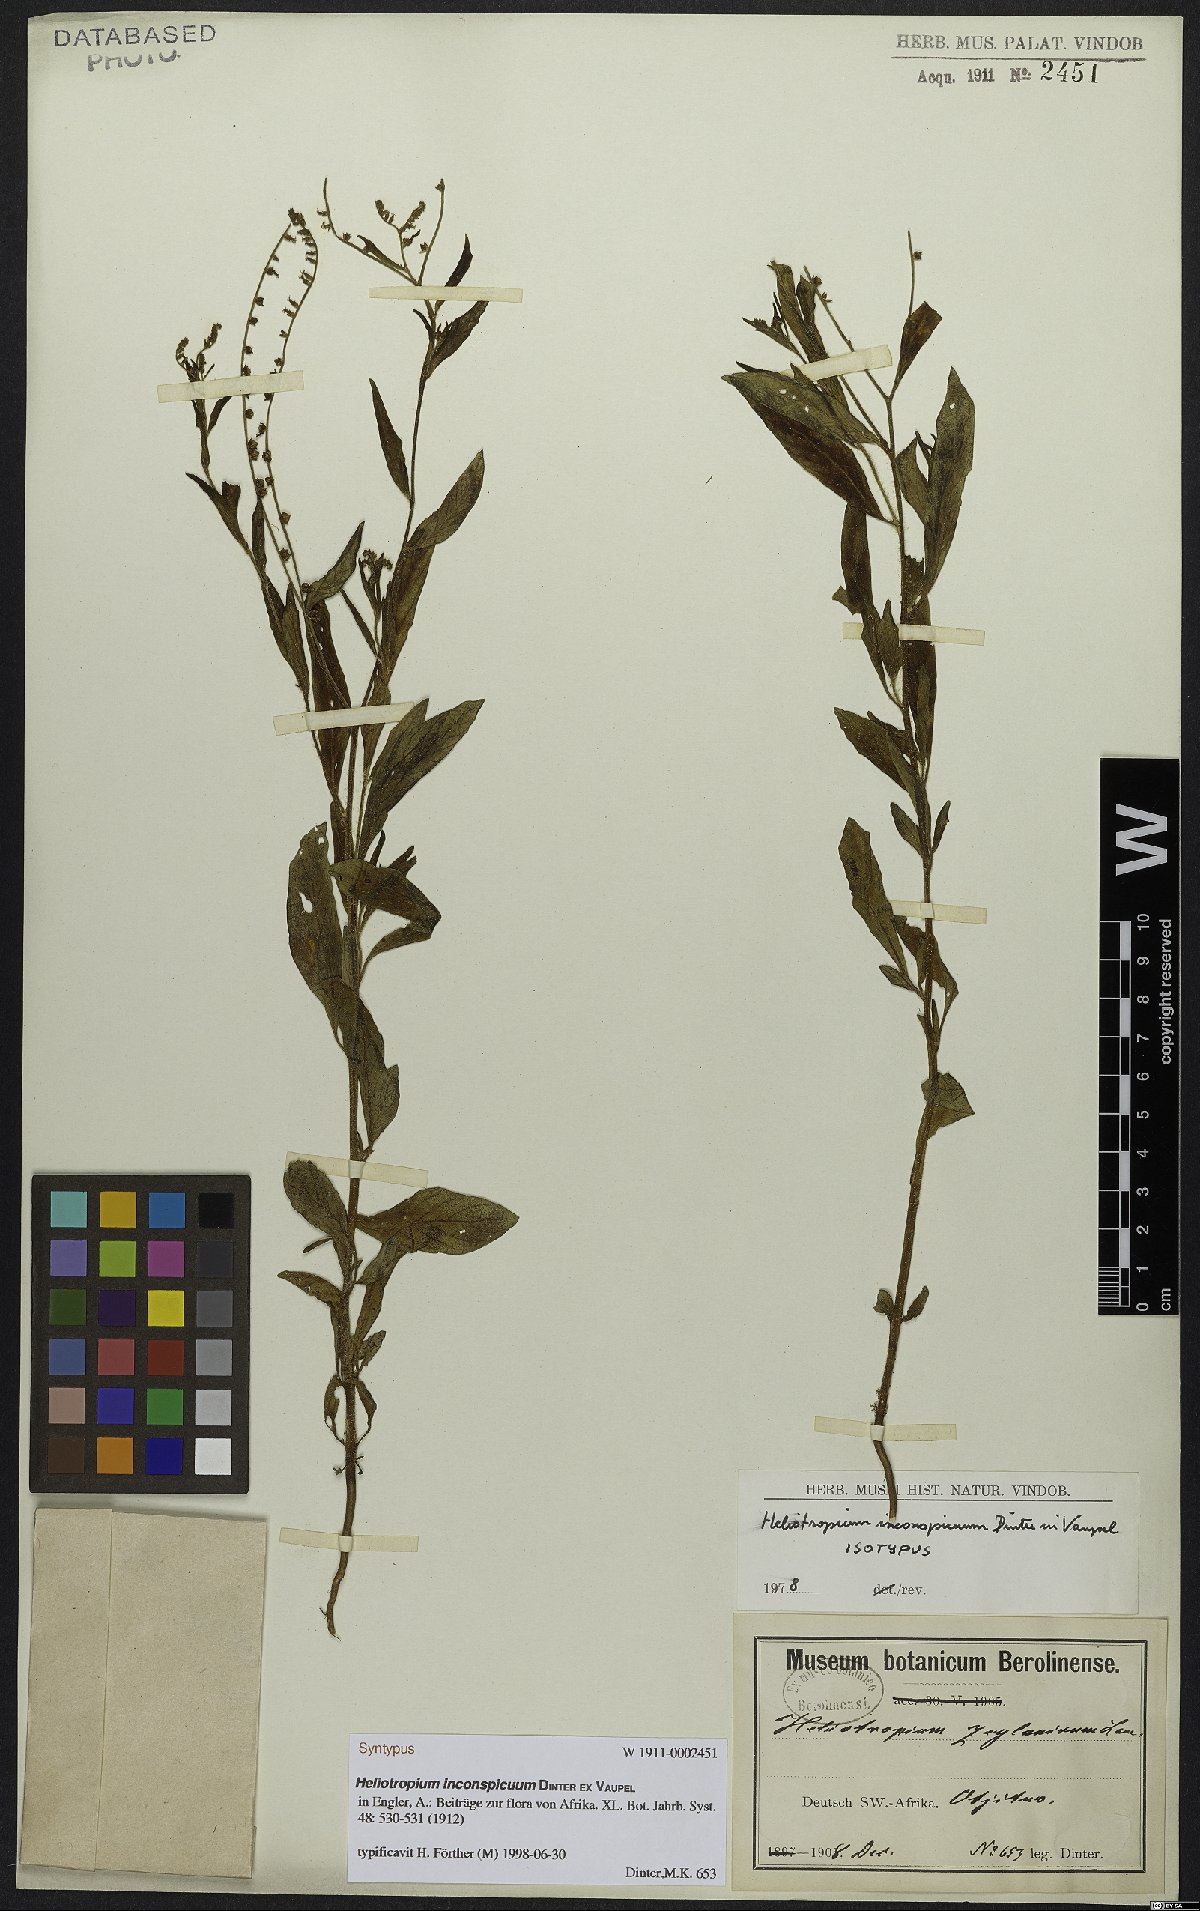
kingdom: Plantae
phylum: Tracheophyta
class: Magnoliopsida
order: Boraginales
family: Heliotropiaceae
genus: Heliotropium
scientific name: Heliotropium zeylanicum
